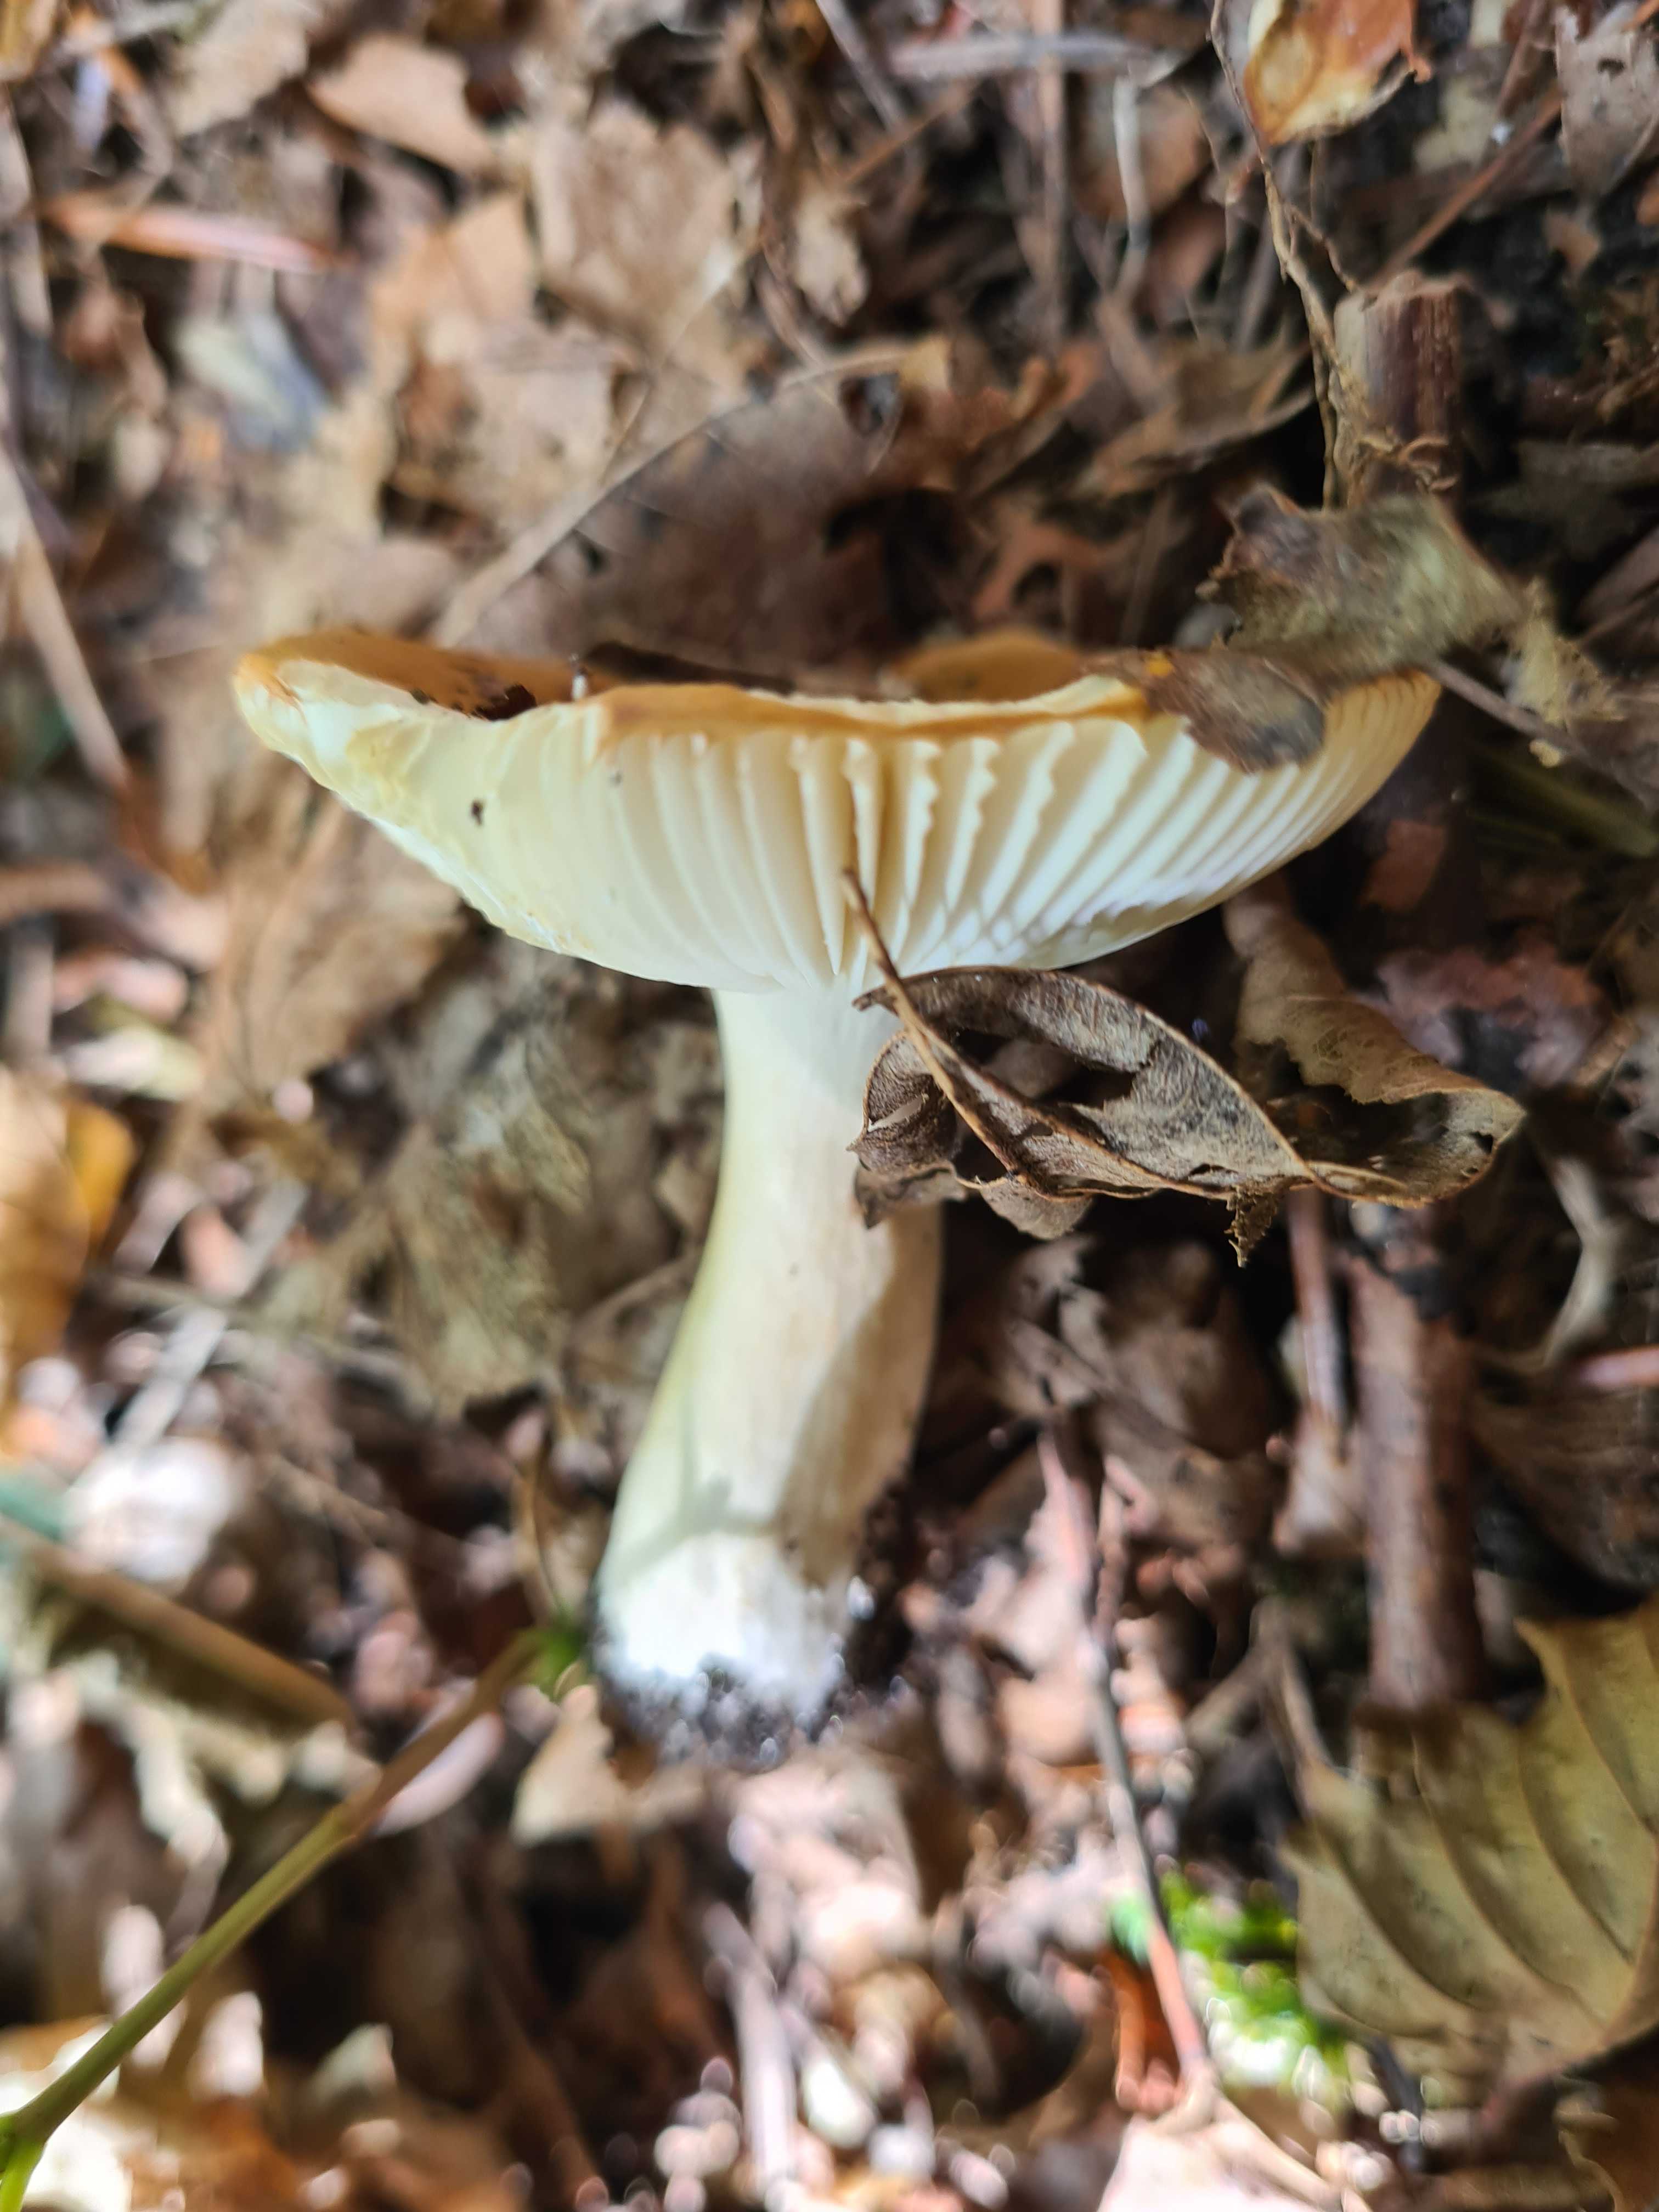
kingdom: Fungi
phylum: Basidiomycota
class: Agaricomycetes
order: Russulales
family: Russulaceae
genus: Russula
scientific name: Russula ochroleuca
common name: okkergul skørhat
